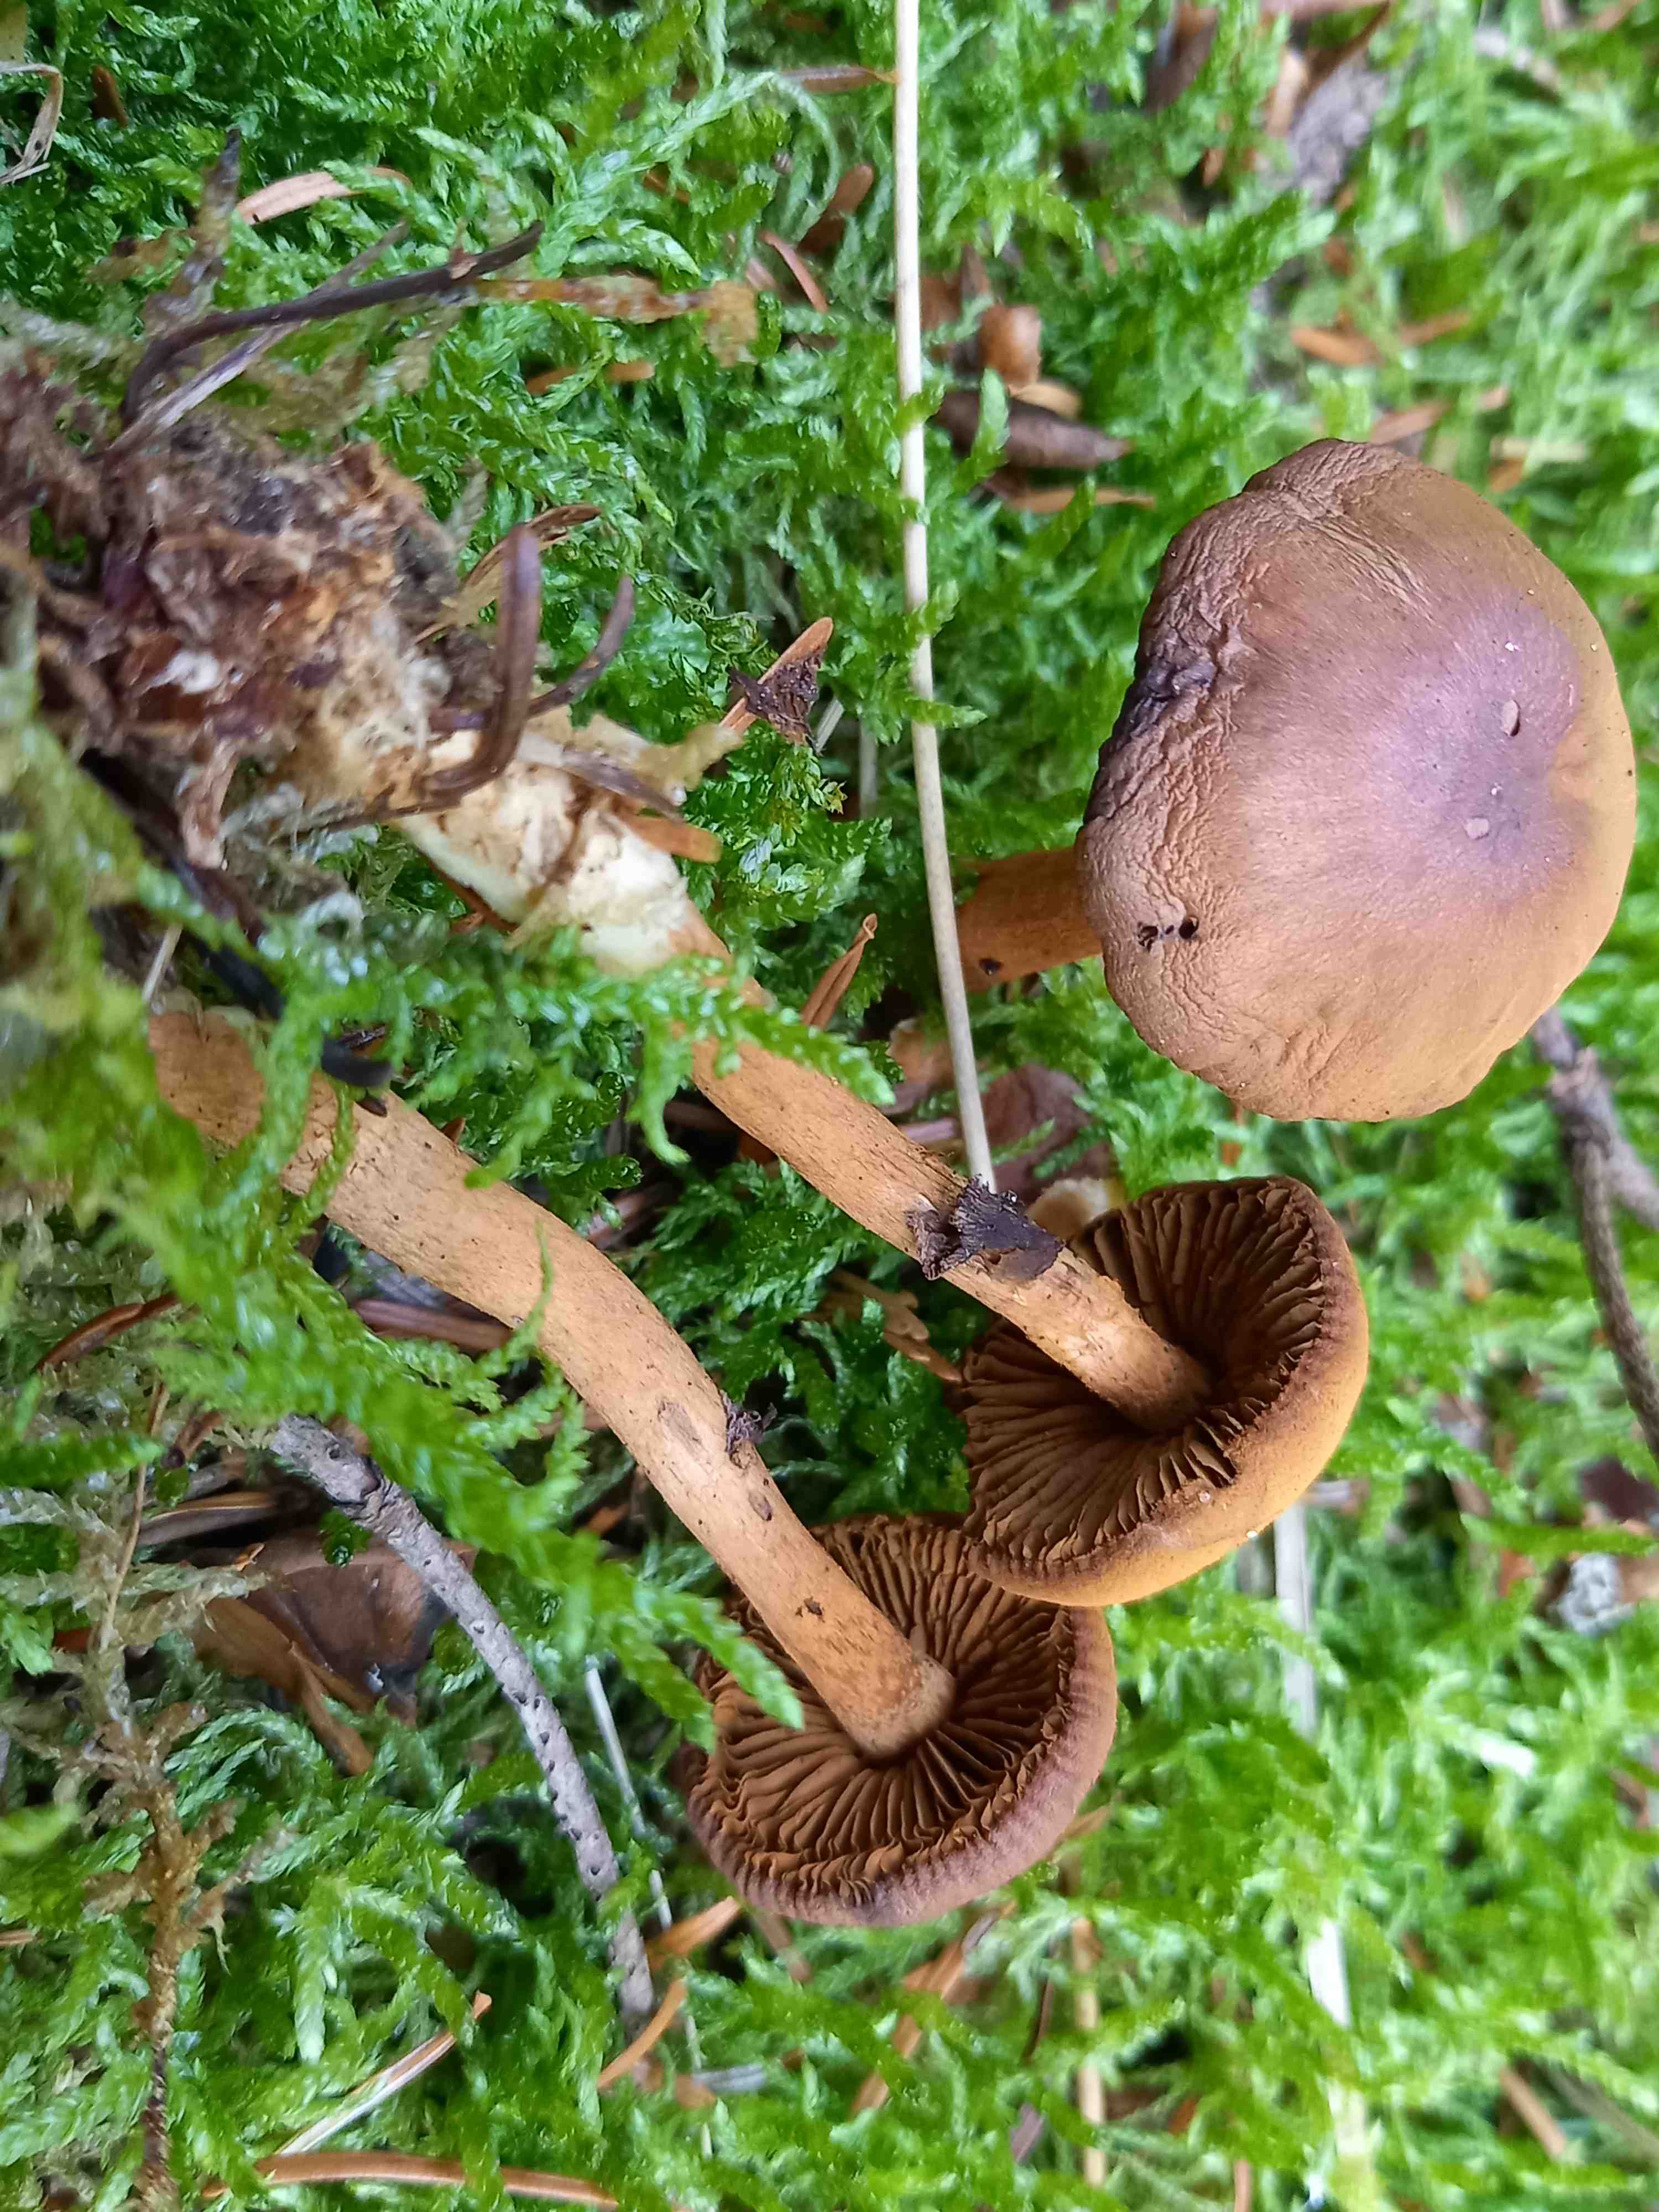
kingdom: Fungi
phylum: Basidiomycota
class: Agaricomycetes
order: Agaricales
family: Cortinariaceae
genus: Cortinarius
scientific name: Cortinarius
